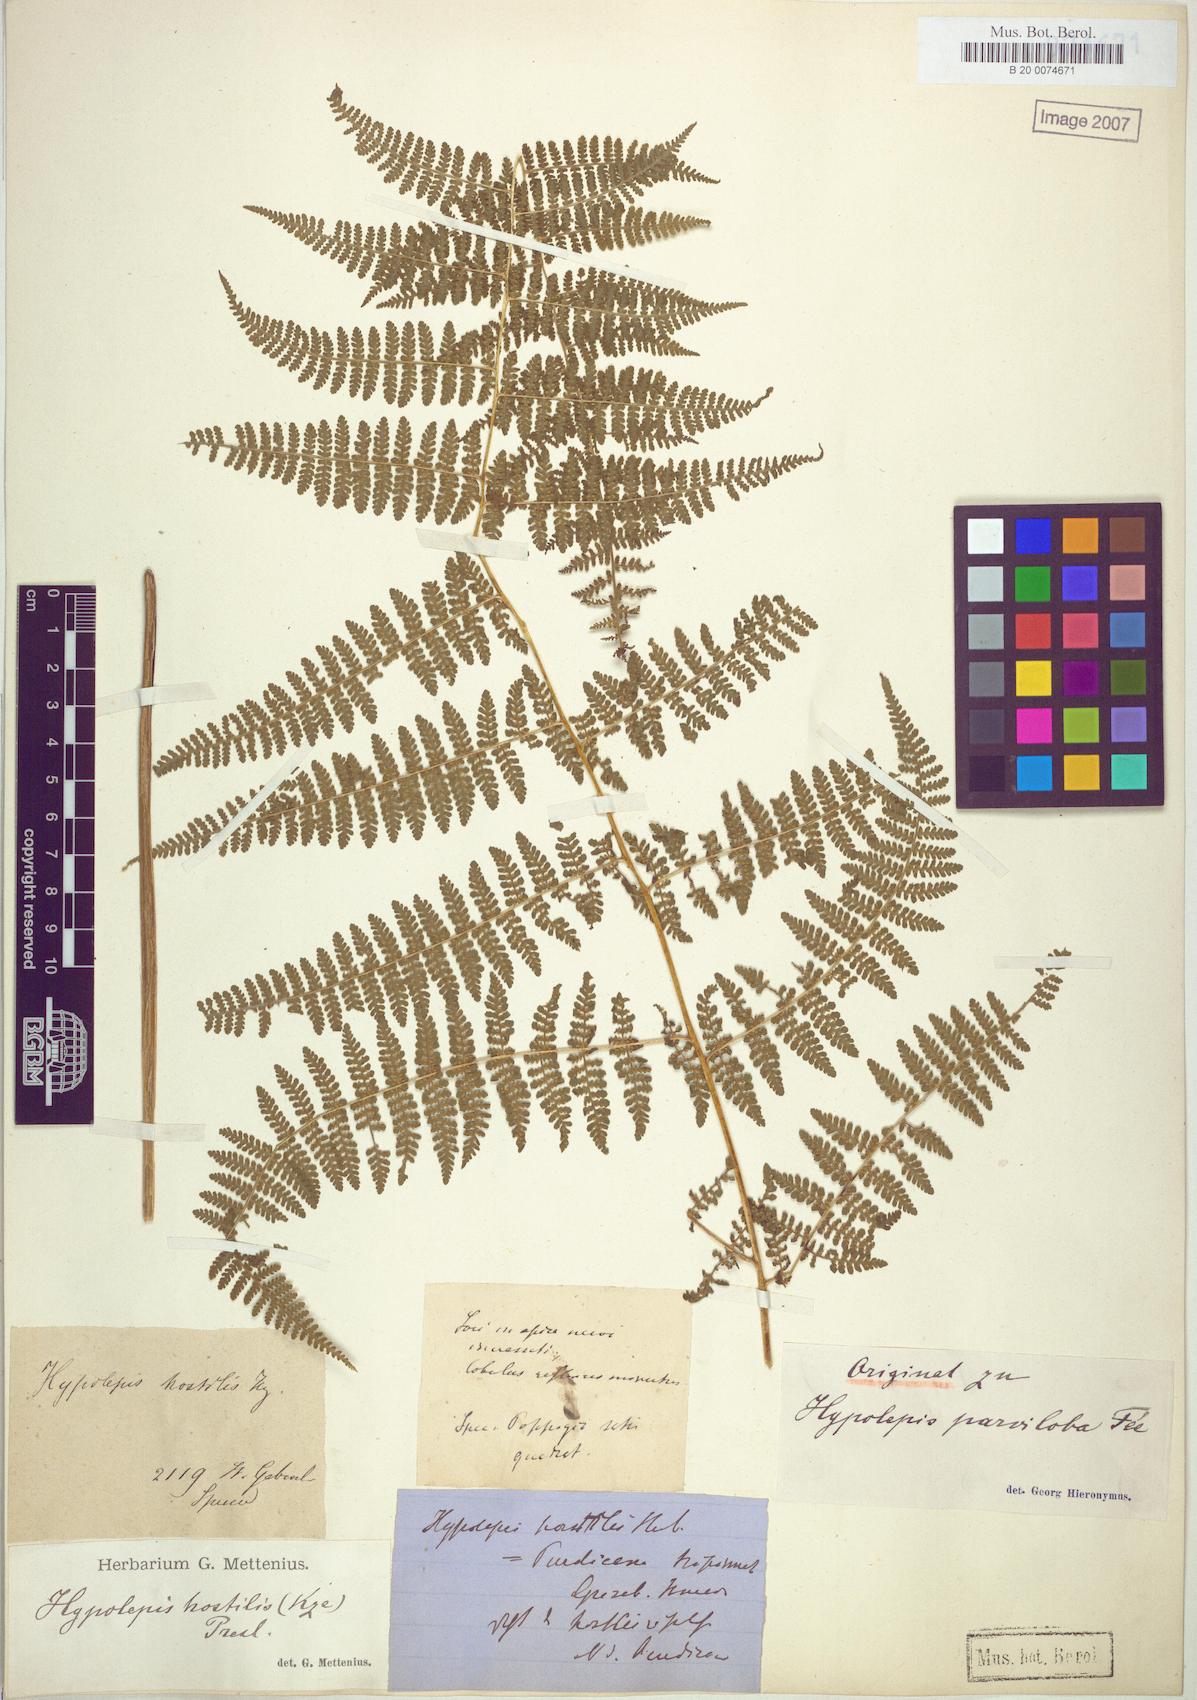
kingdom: Plantae
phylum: Tracheophyta
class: Polypodiopsida
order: Polypodiales
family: Dennstaedtiaceae
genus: Hypolepis
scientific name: Hypolepis hostilis
